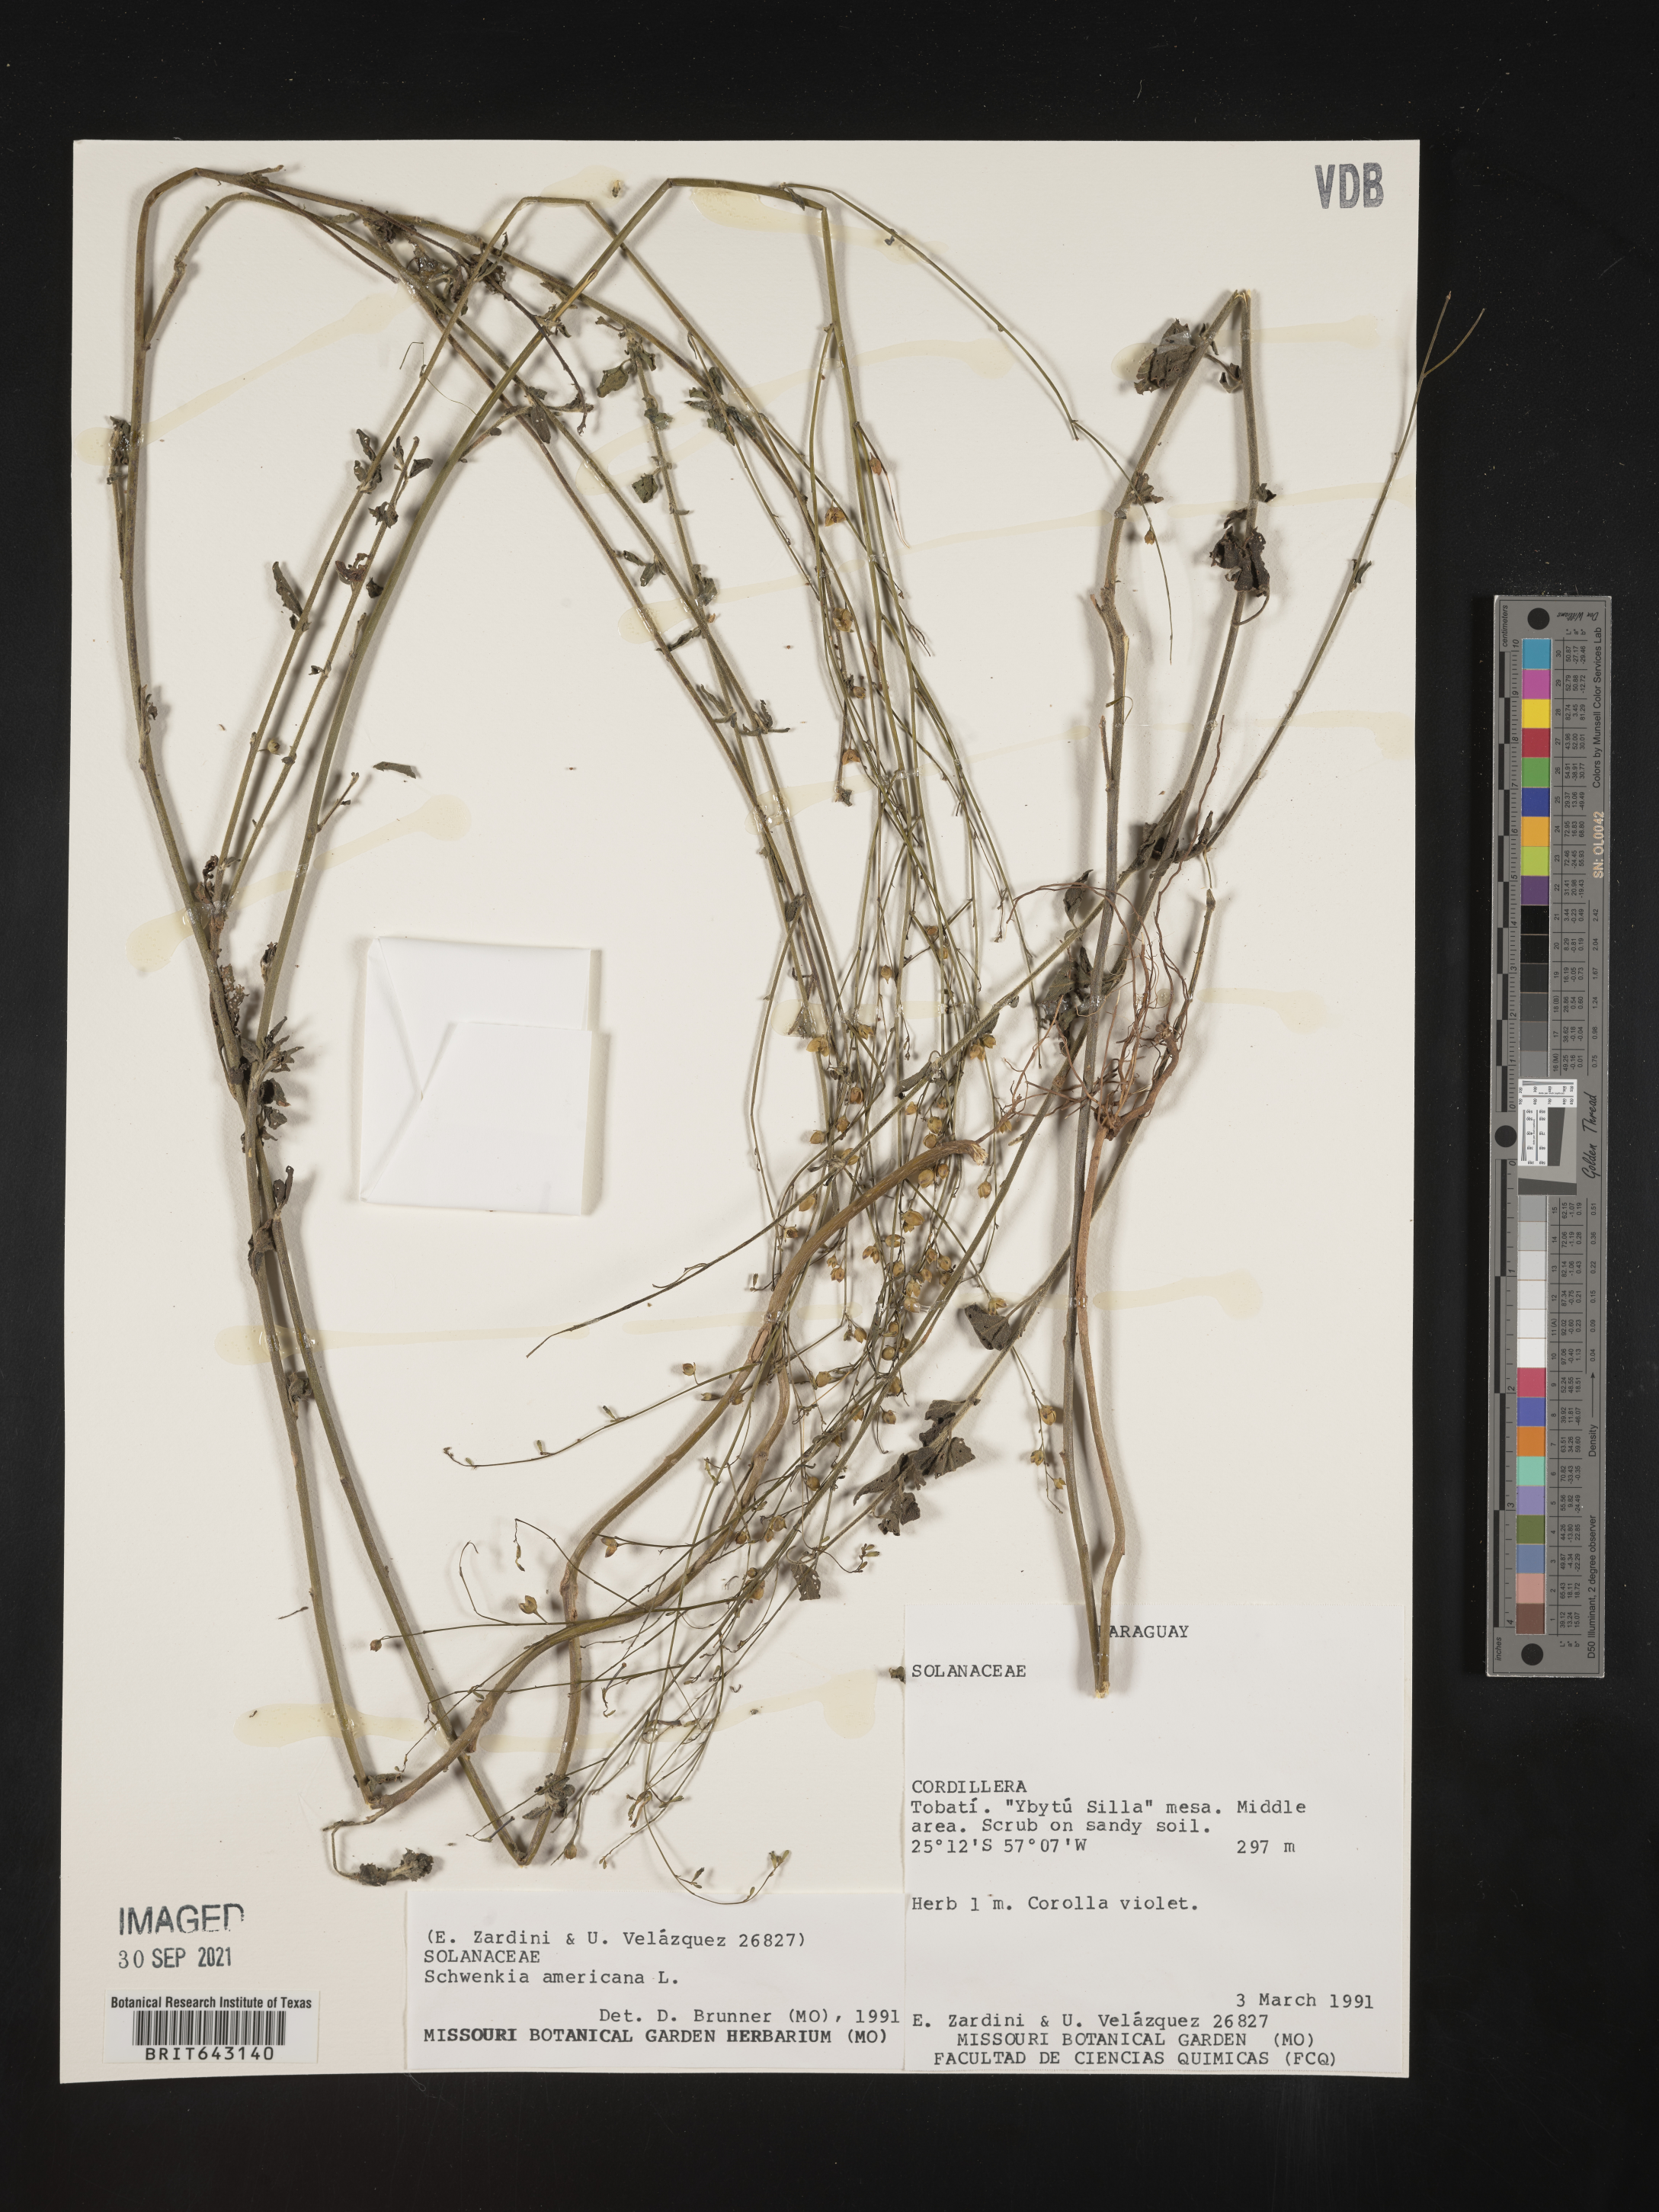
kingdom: Plantae
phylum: Tracheophyta
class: Magnoliopsida
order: Solanales
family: Solanaceae
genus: Schwenckia
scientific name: Schwenckia
